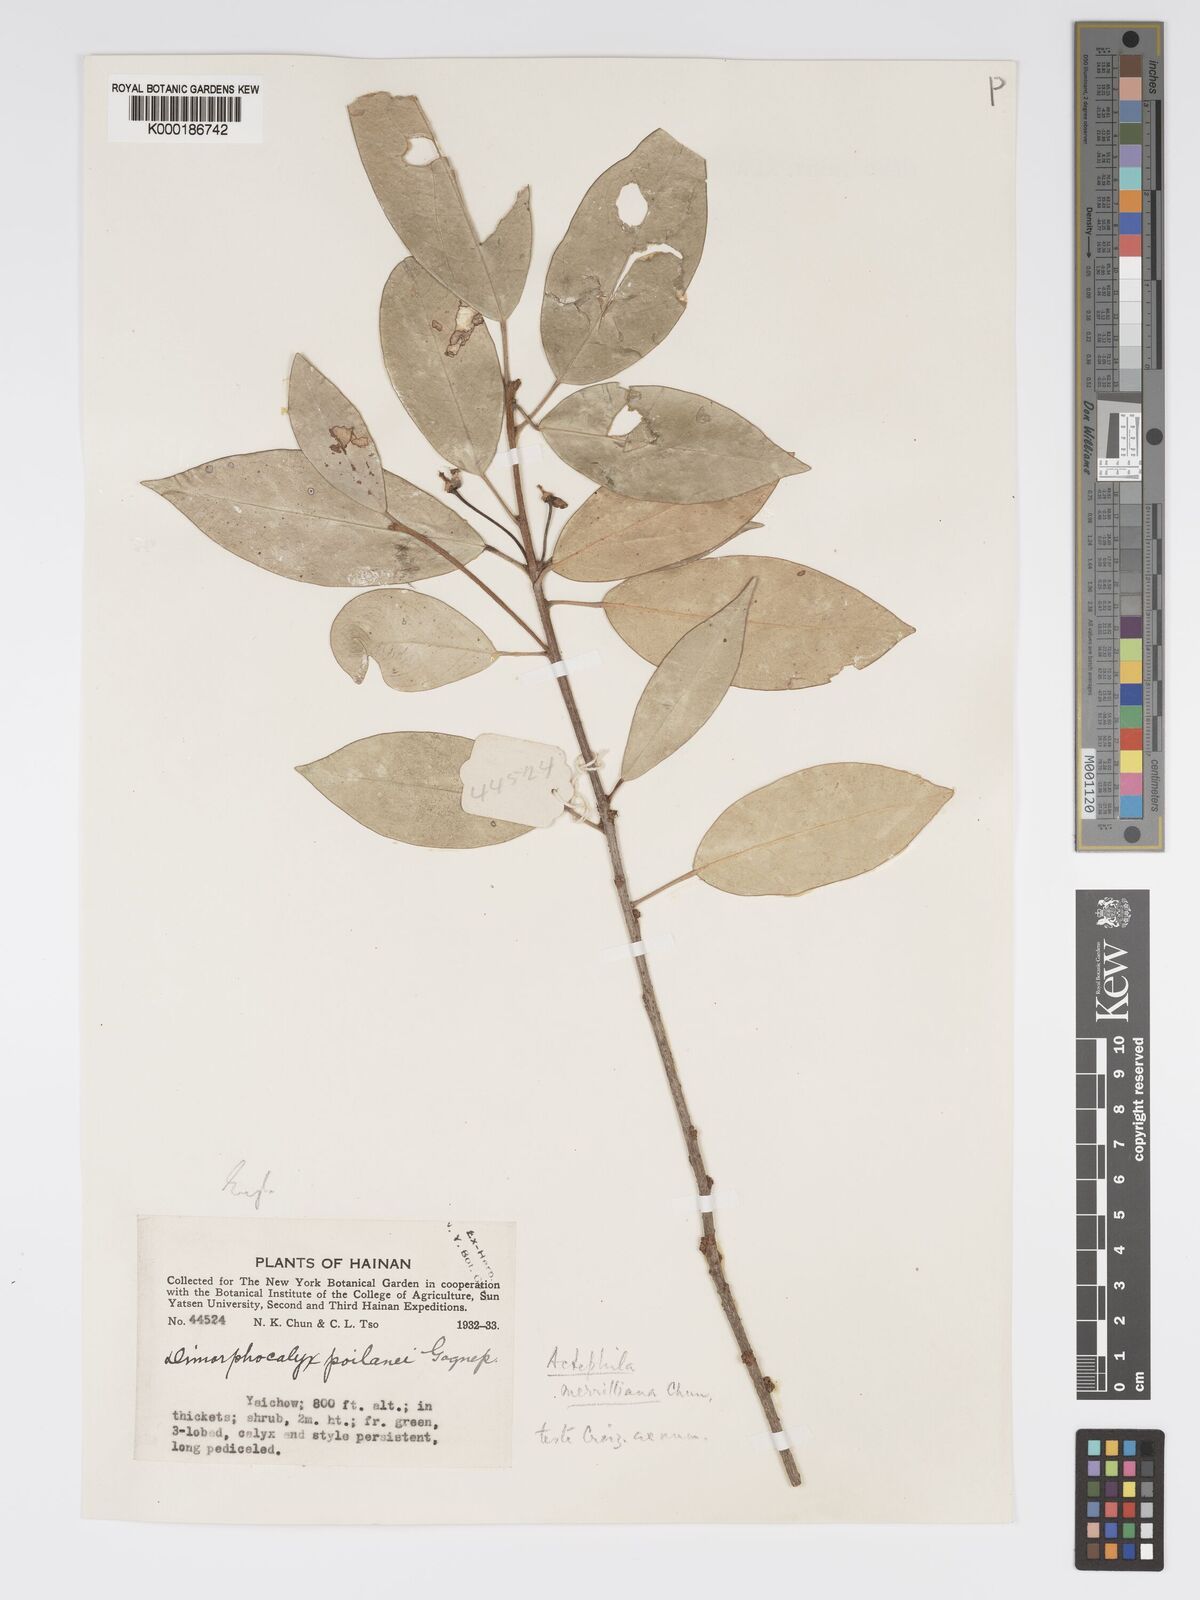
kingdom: Plantae
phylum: Tracheophyta
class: Magnoliopsida
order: Malpighiales
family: Phyllanthaceae
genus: Actephila
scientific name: Actephila merrilliana
